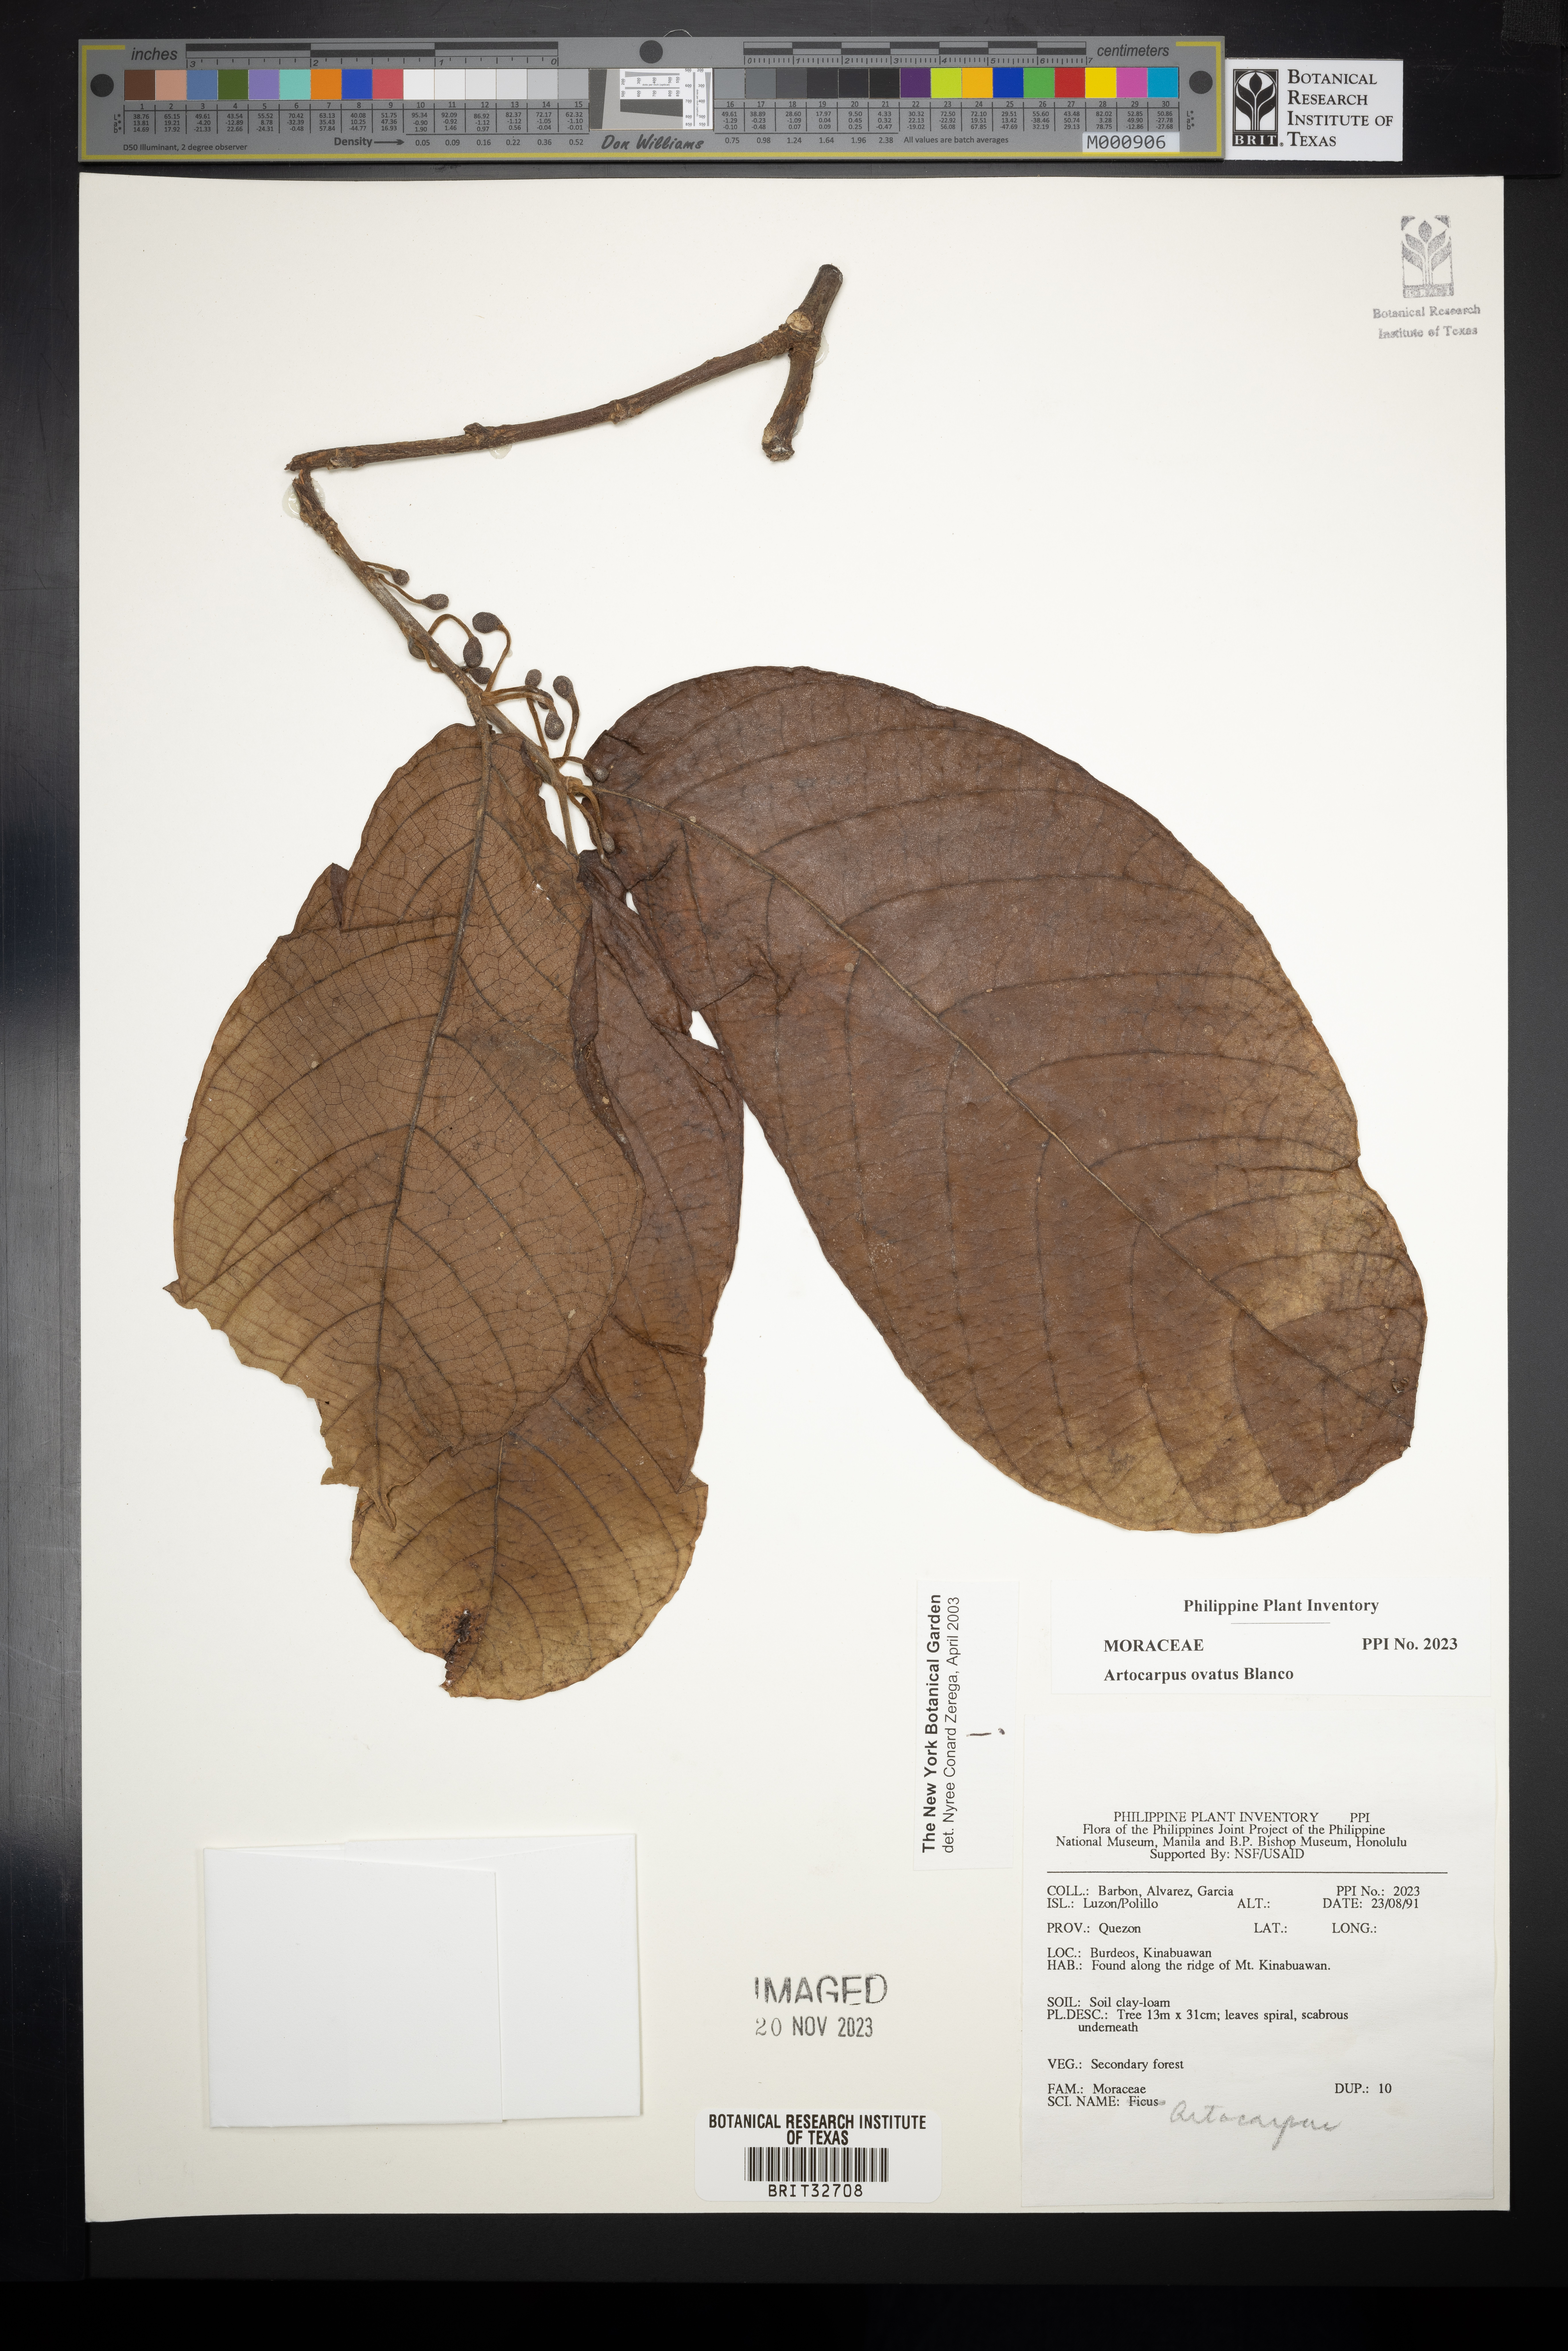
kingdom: Plantae
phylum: Tracheophyta
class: Magnoliopsida
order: Rosales
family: Moraceae
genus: Artocarpus
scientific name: Artocarpus lacucha
